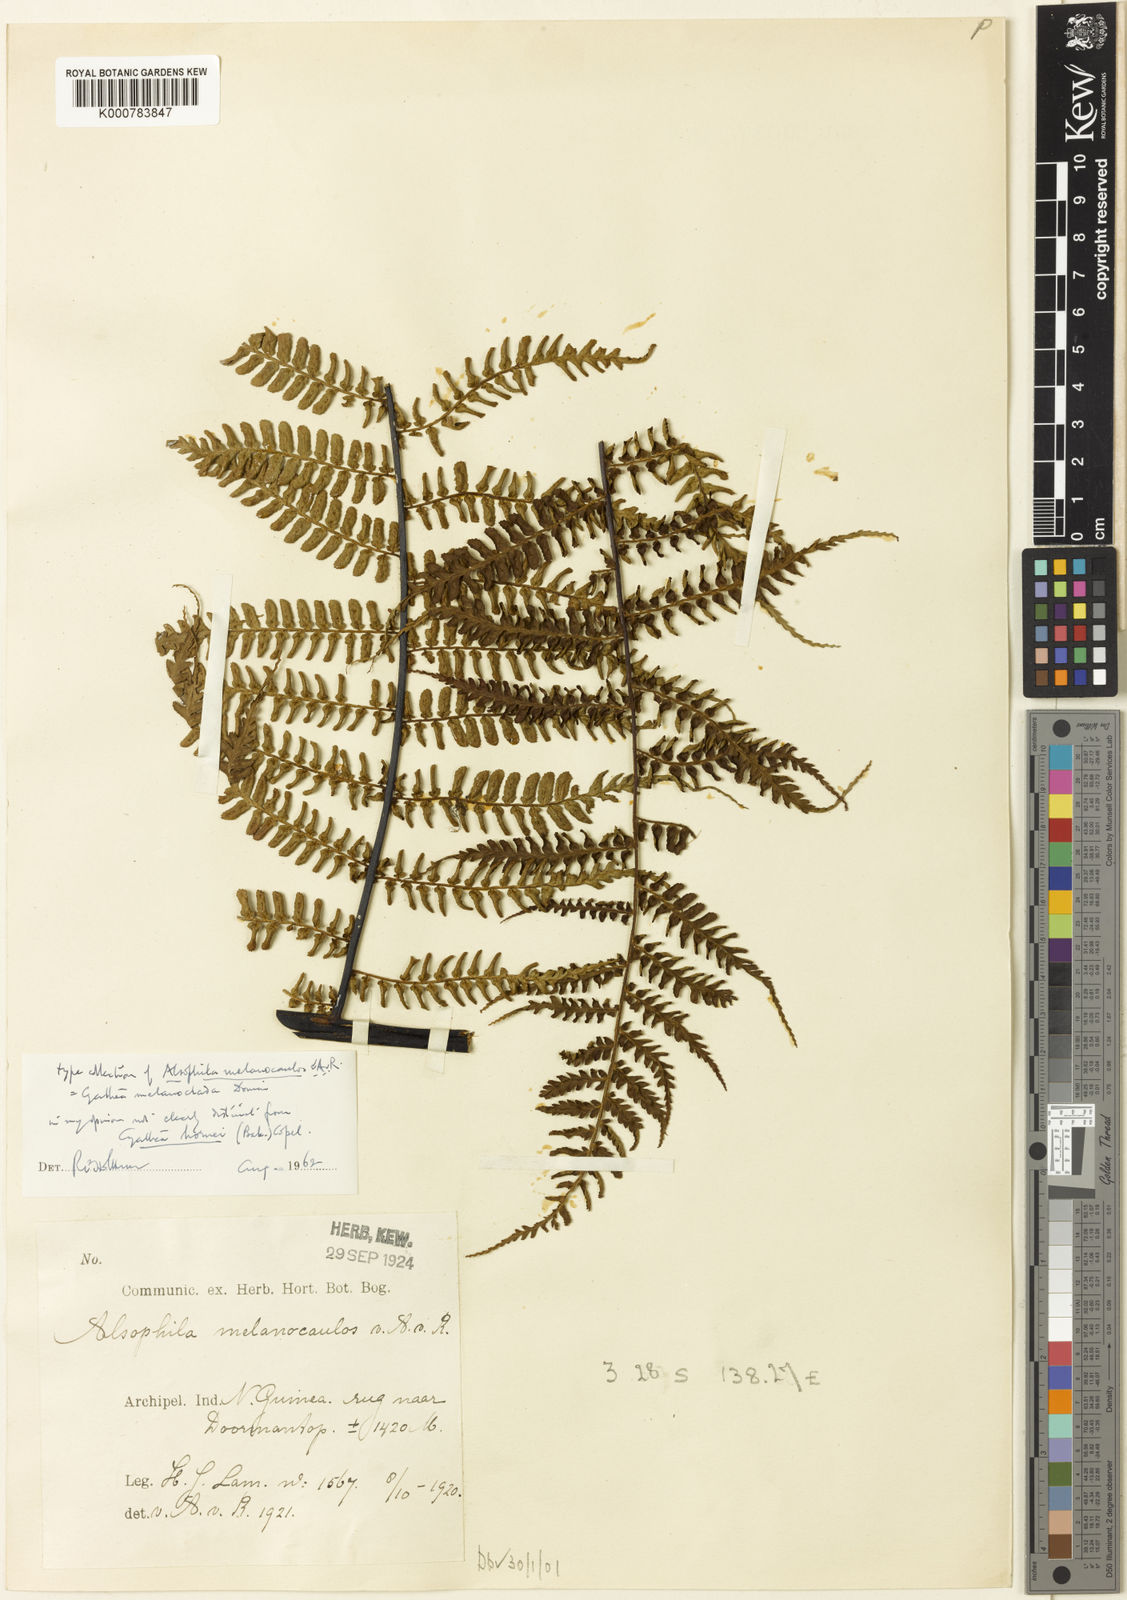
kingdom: Plantae
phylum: Tracheophyta
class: Polypodiopsida
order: Cyatheales
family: Cyatheaceae
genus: Gymnosphaera
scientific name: Gymnosphaera hornei
